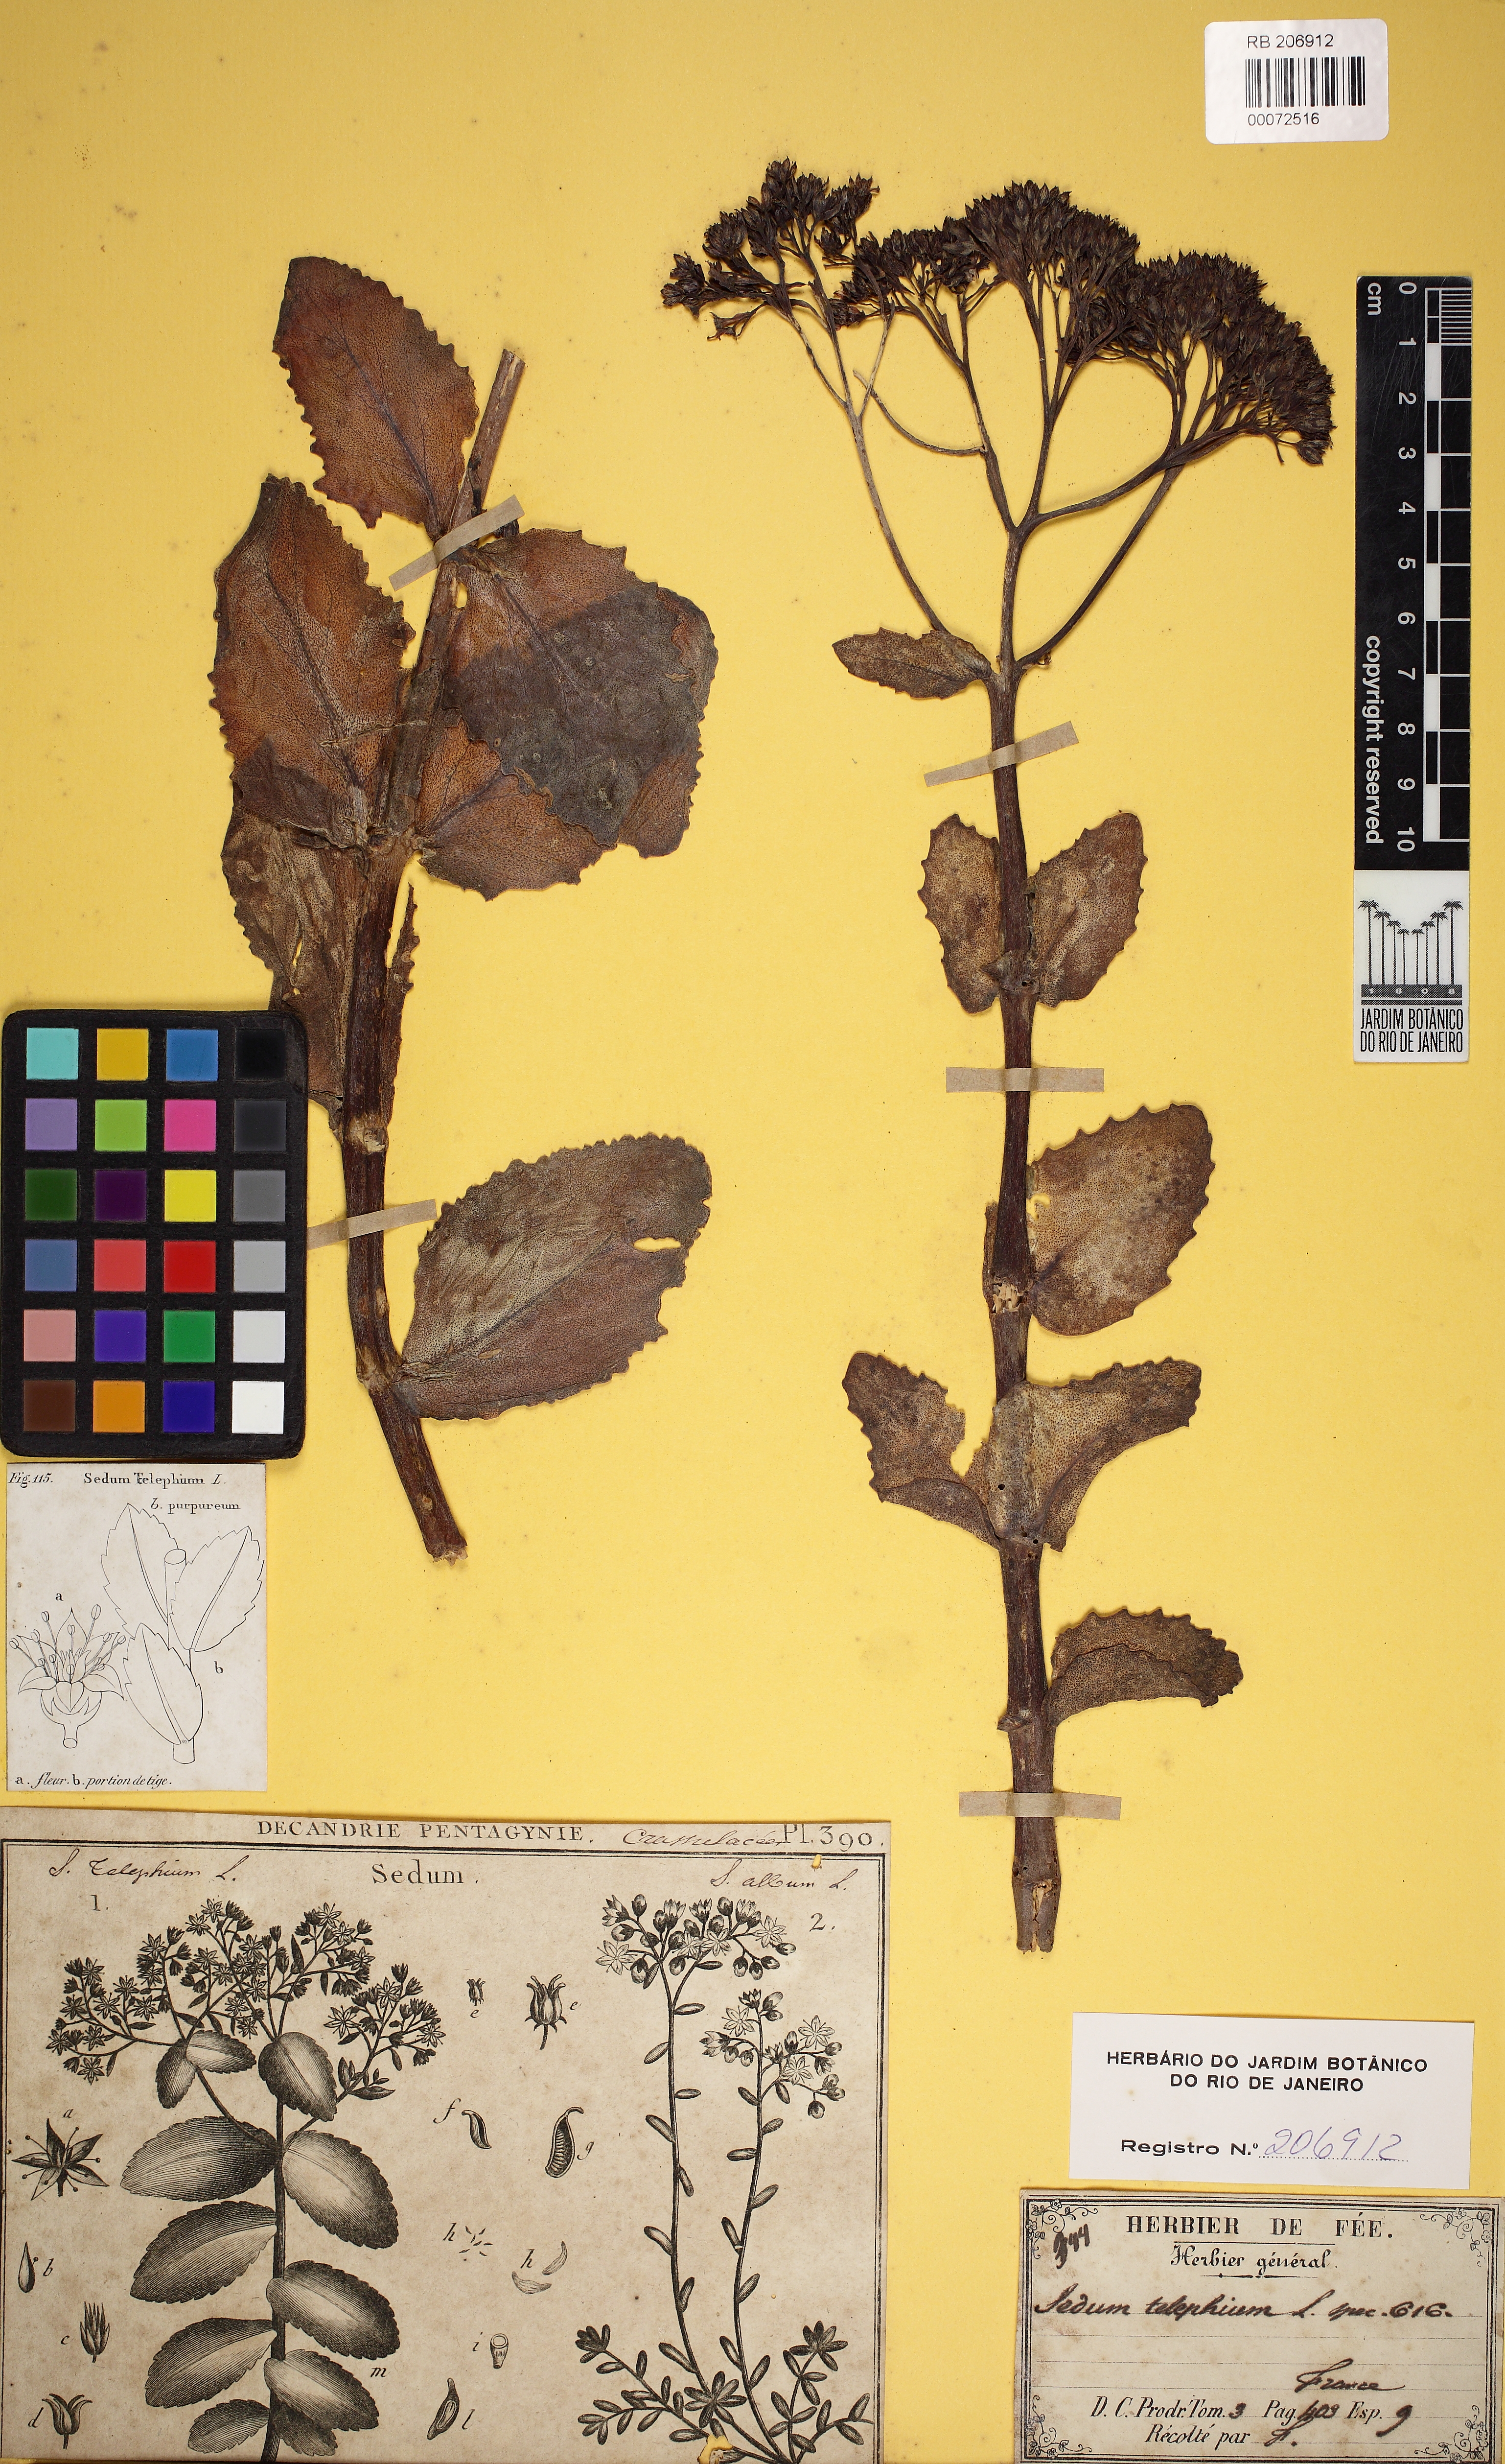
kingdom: Plantae
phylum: Tracheophyta
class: Magnoliopsida
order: Saxifragales
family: Crassulaceae
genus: Sedum
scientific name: Sedum telephiastrum
